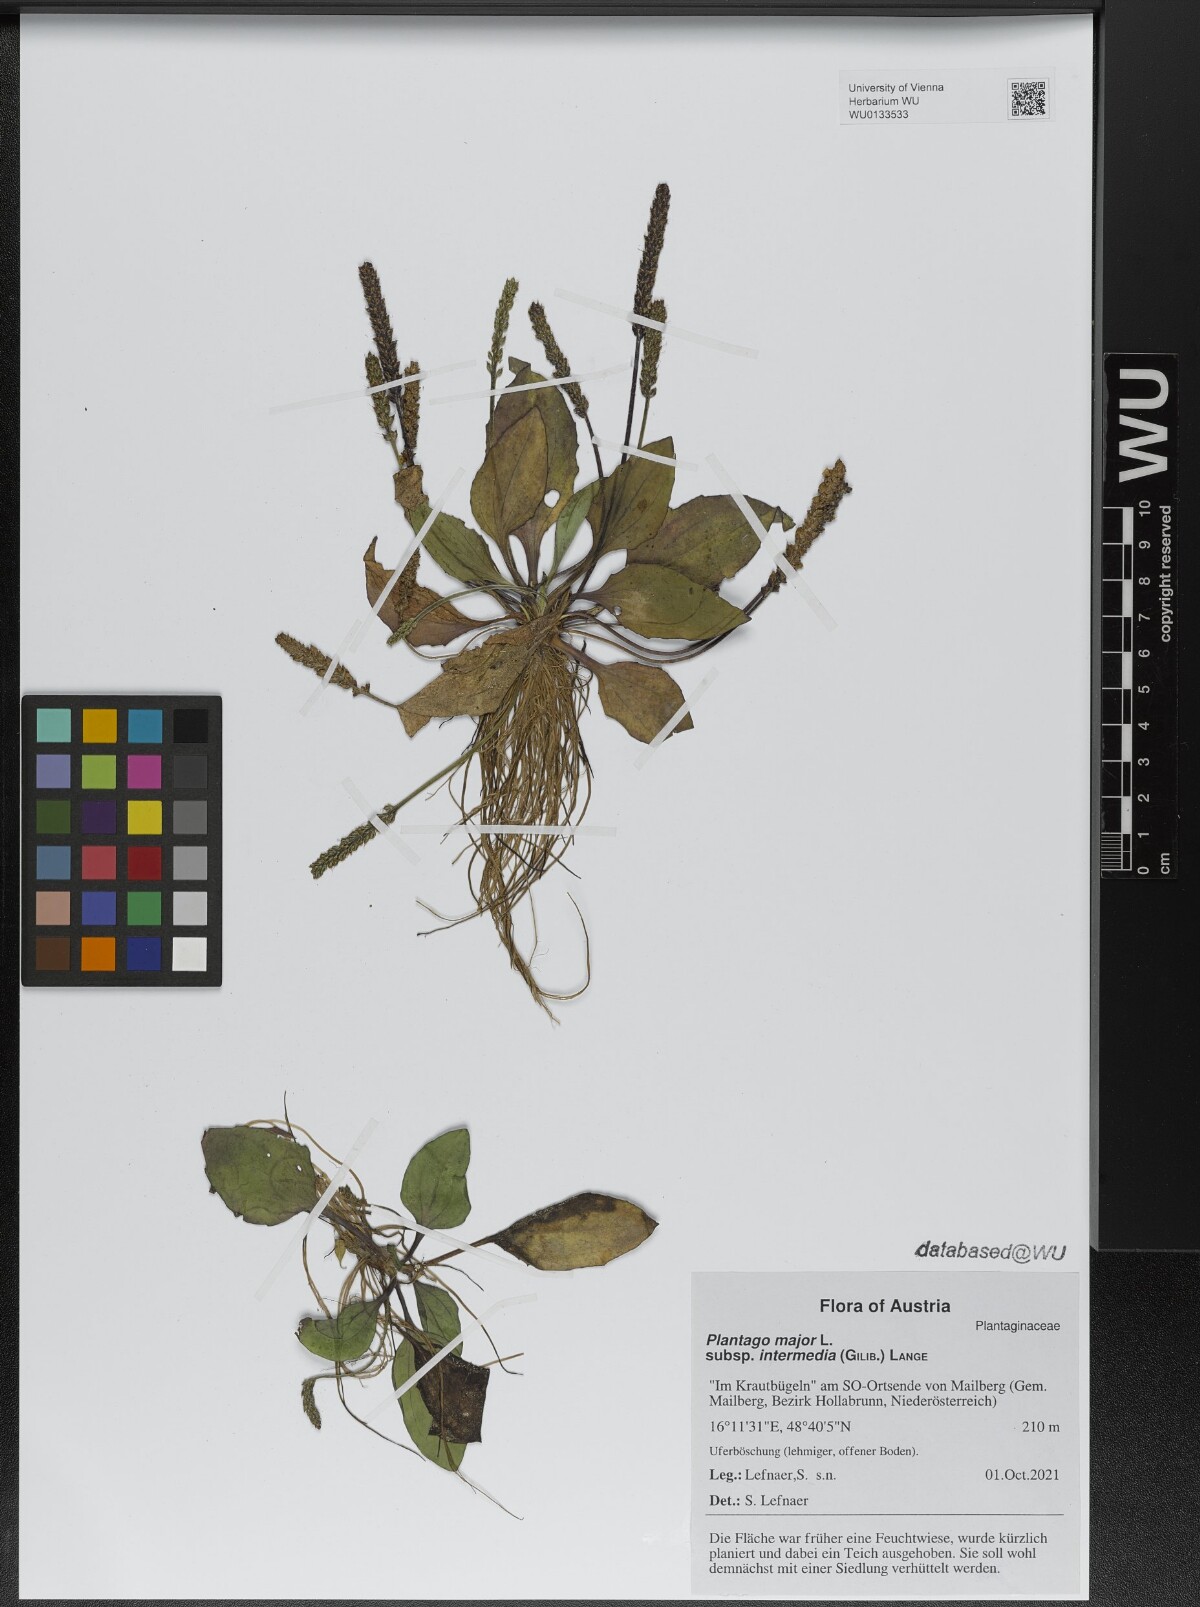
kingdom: Plantae
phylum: Tracheophyta
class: Magnoliopsida
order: Lamiales
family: Plantaginaceae
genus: Plantago
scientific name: Plantago uliginosa
